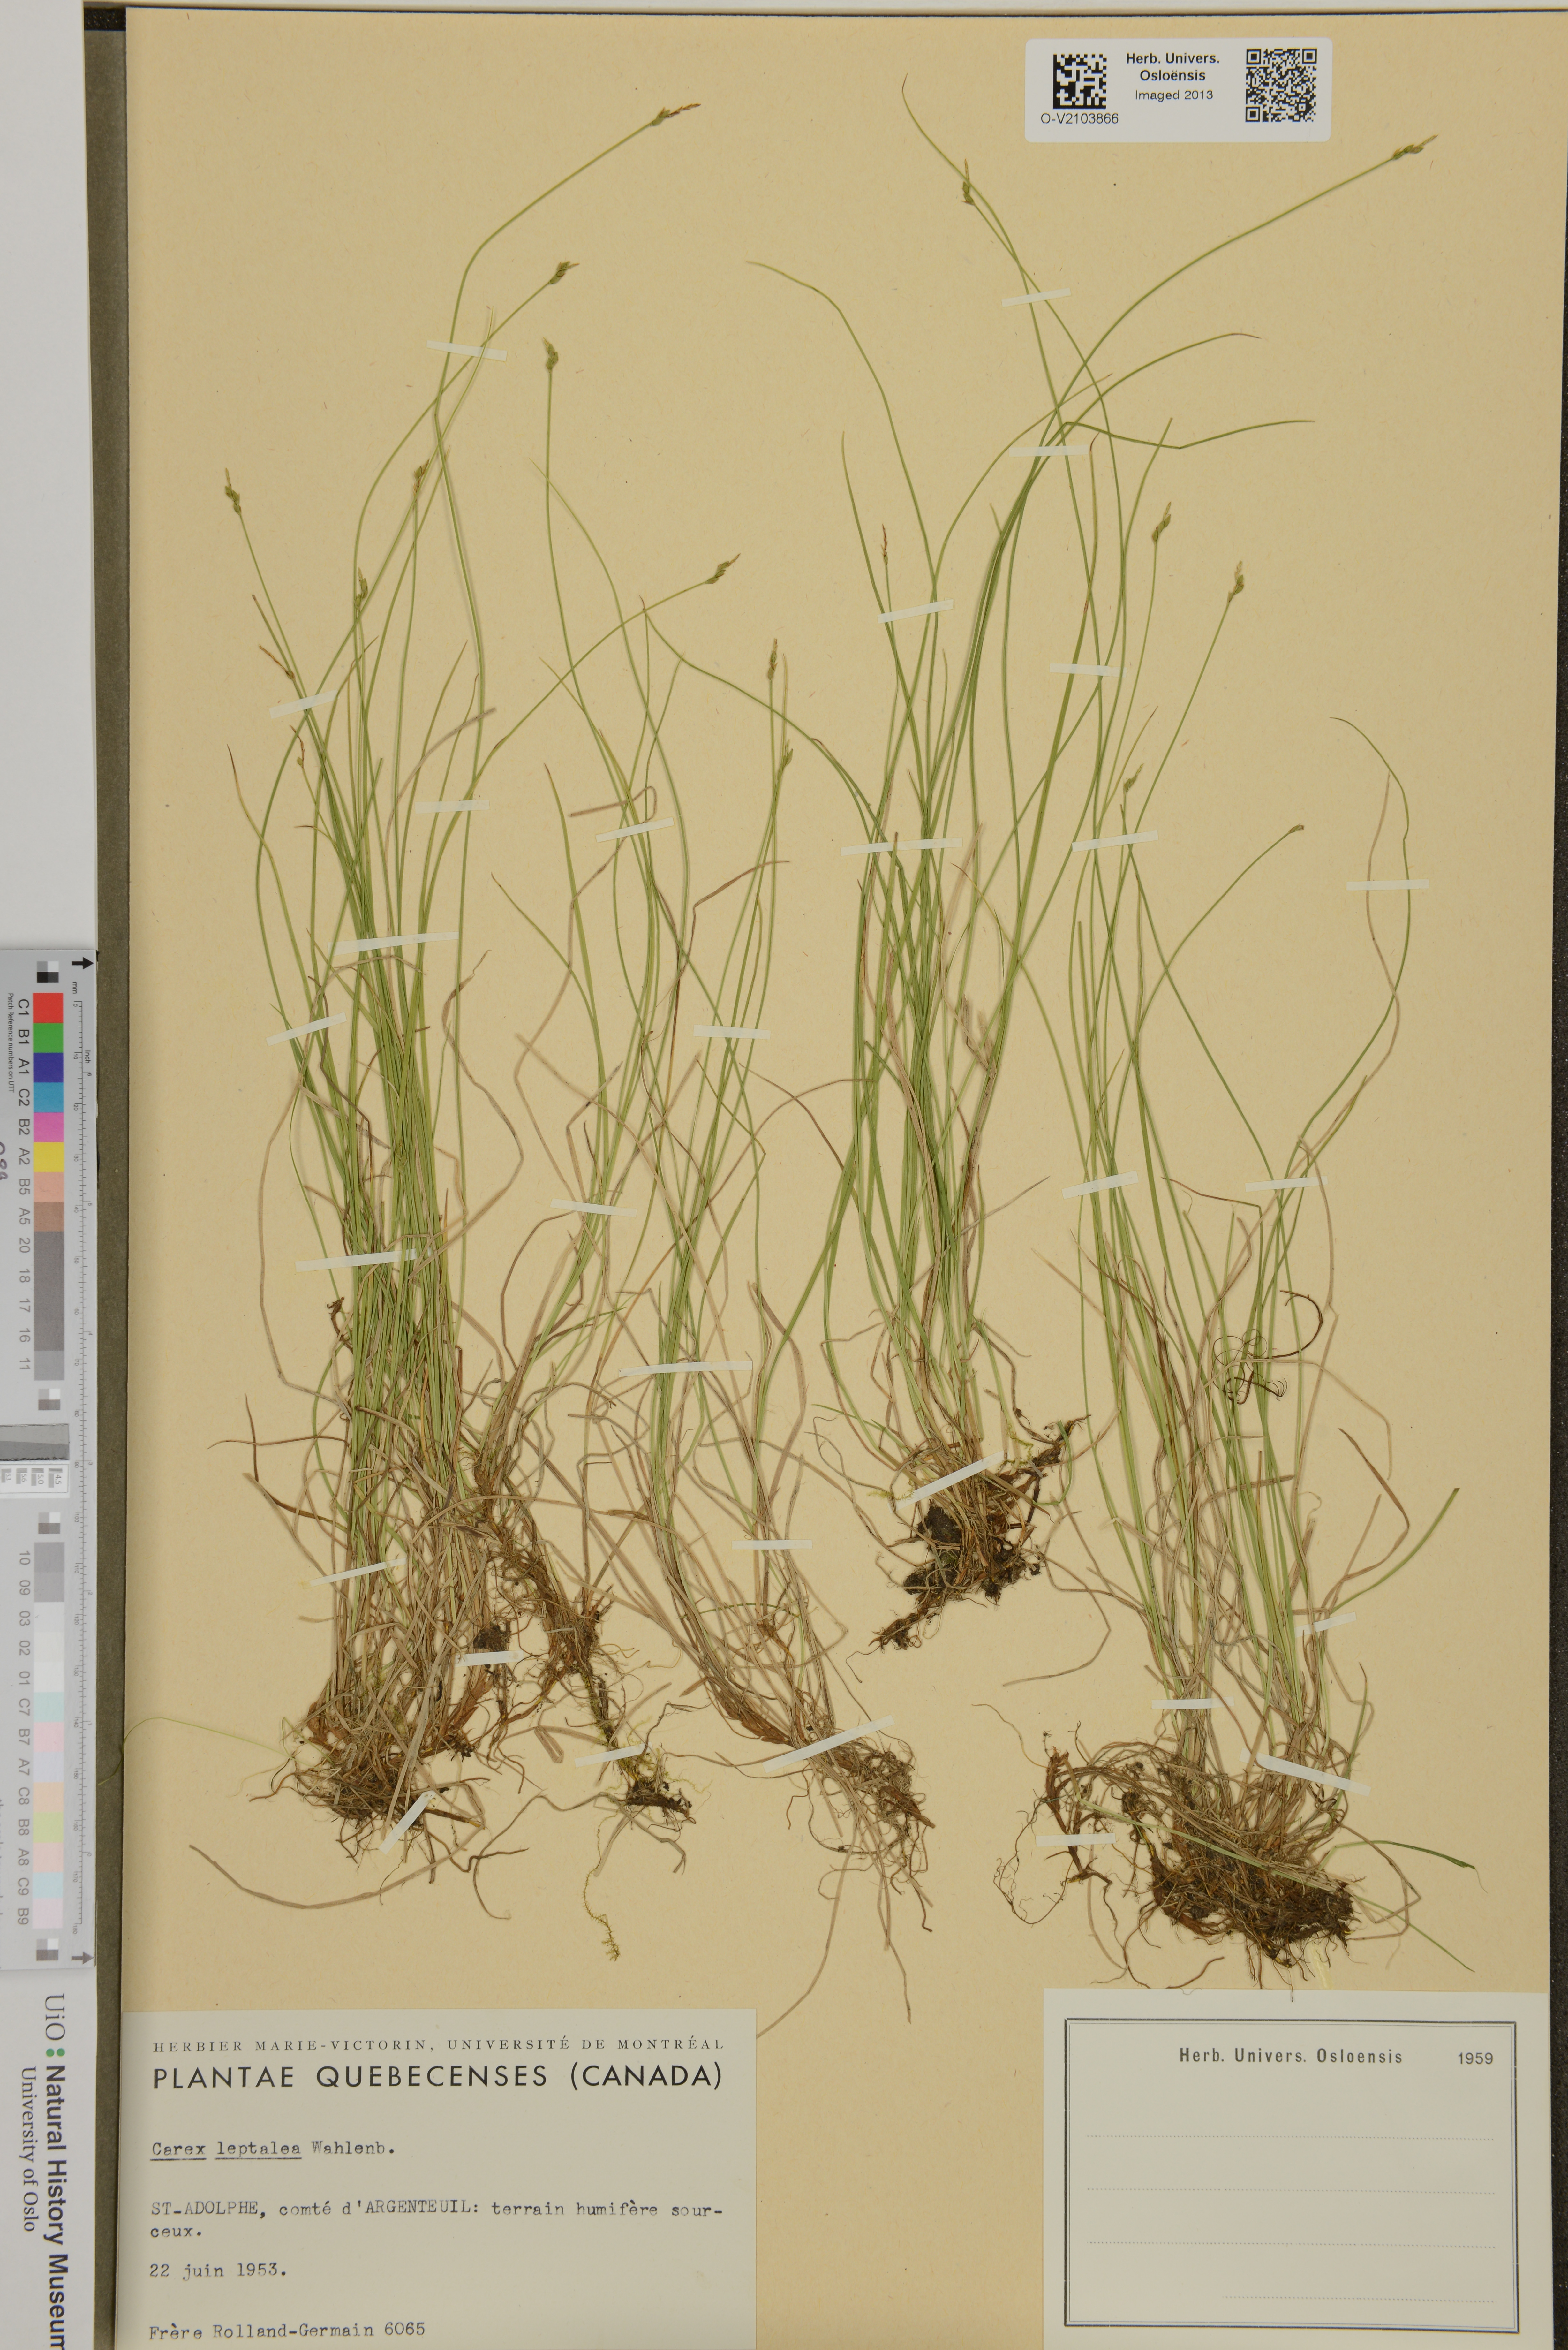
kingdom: Plantae
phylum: Tracheophyta
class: Liliopsida
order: Poales
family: Cyperaceae
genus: Carex
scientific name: Carex leptalea
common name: Bristly-stalked sedge
